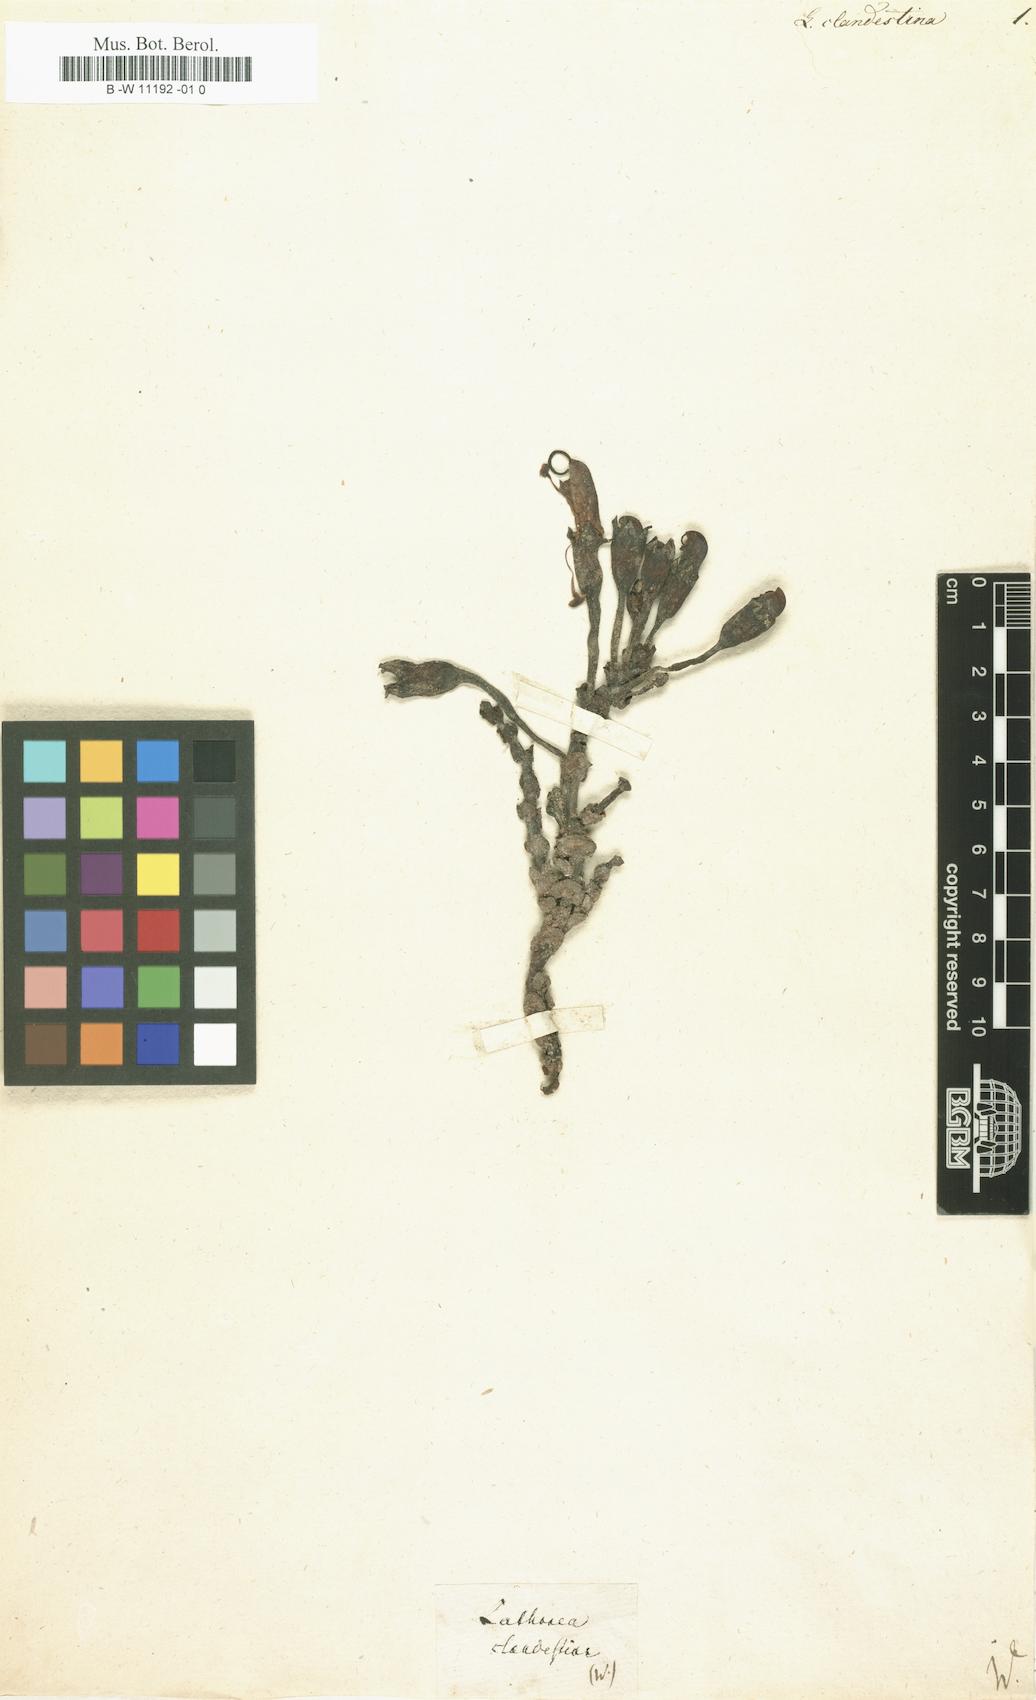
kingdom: Plantae
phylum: Tracheophyta
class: Magnoliopsida
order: Lamiales
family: Orobanchaceae
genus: Lathraea
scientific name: Lathraea clandestina
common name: Purple toothwort
